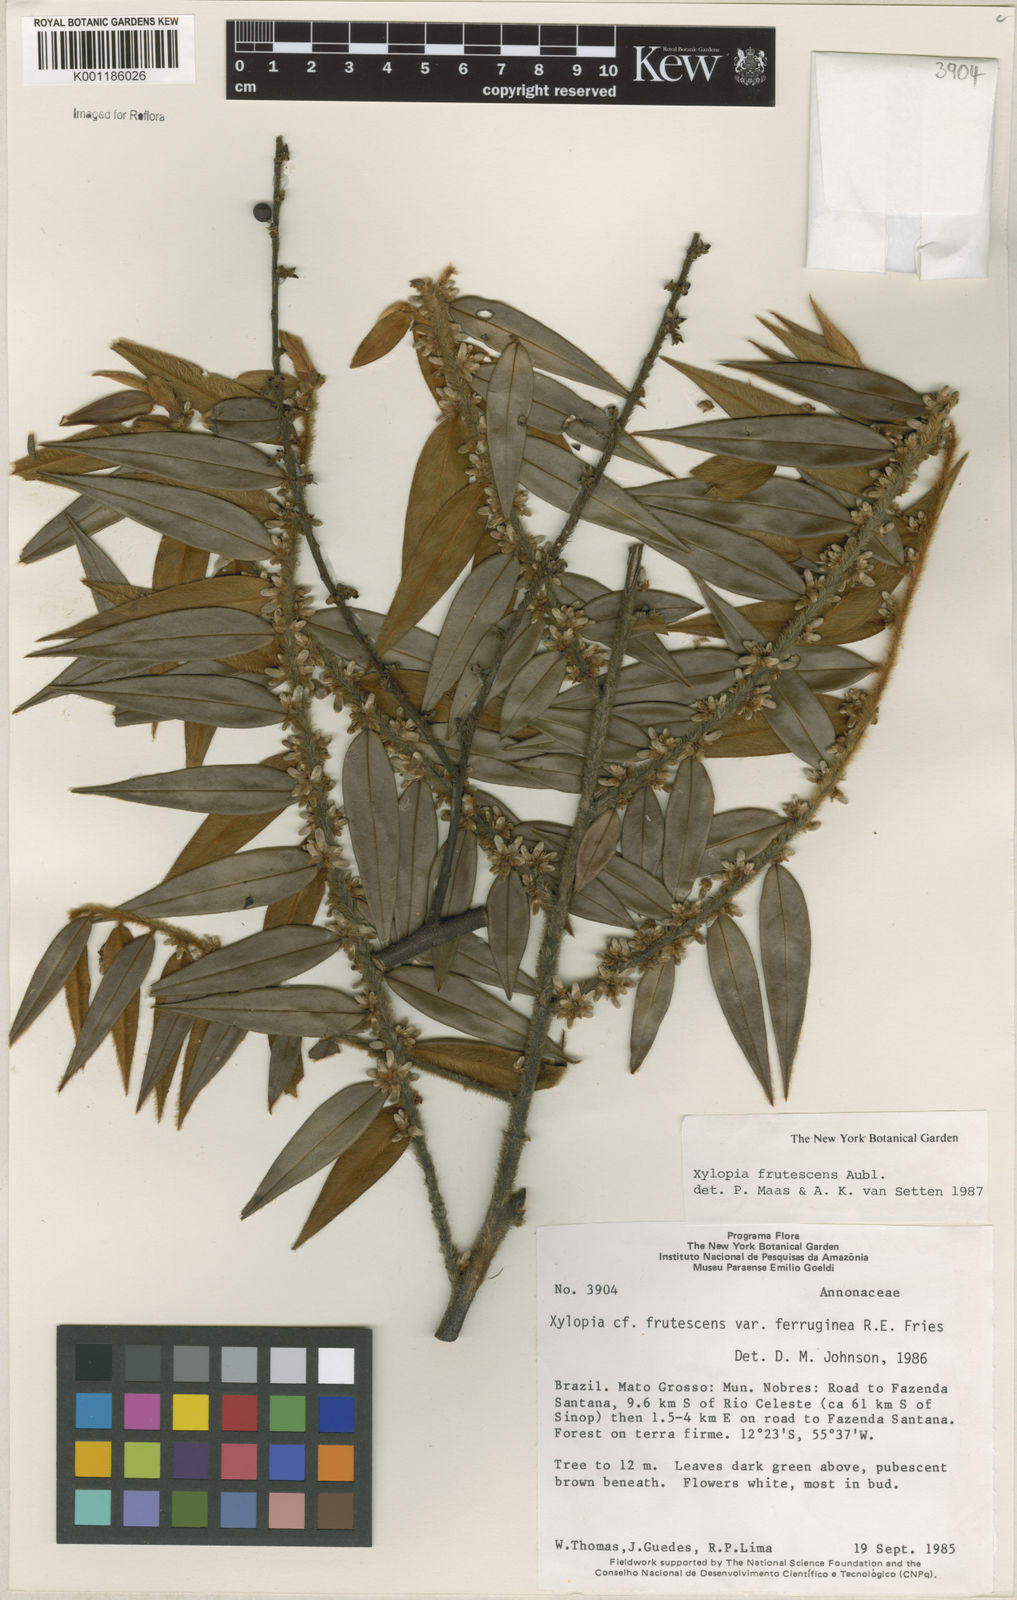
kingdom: Plantae
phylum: Tracheophyta
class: Magnoliopsida
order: Magnoliales
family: Annonaceae
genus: Xylopia
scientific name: Xylopia frutescens
